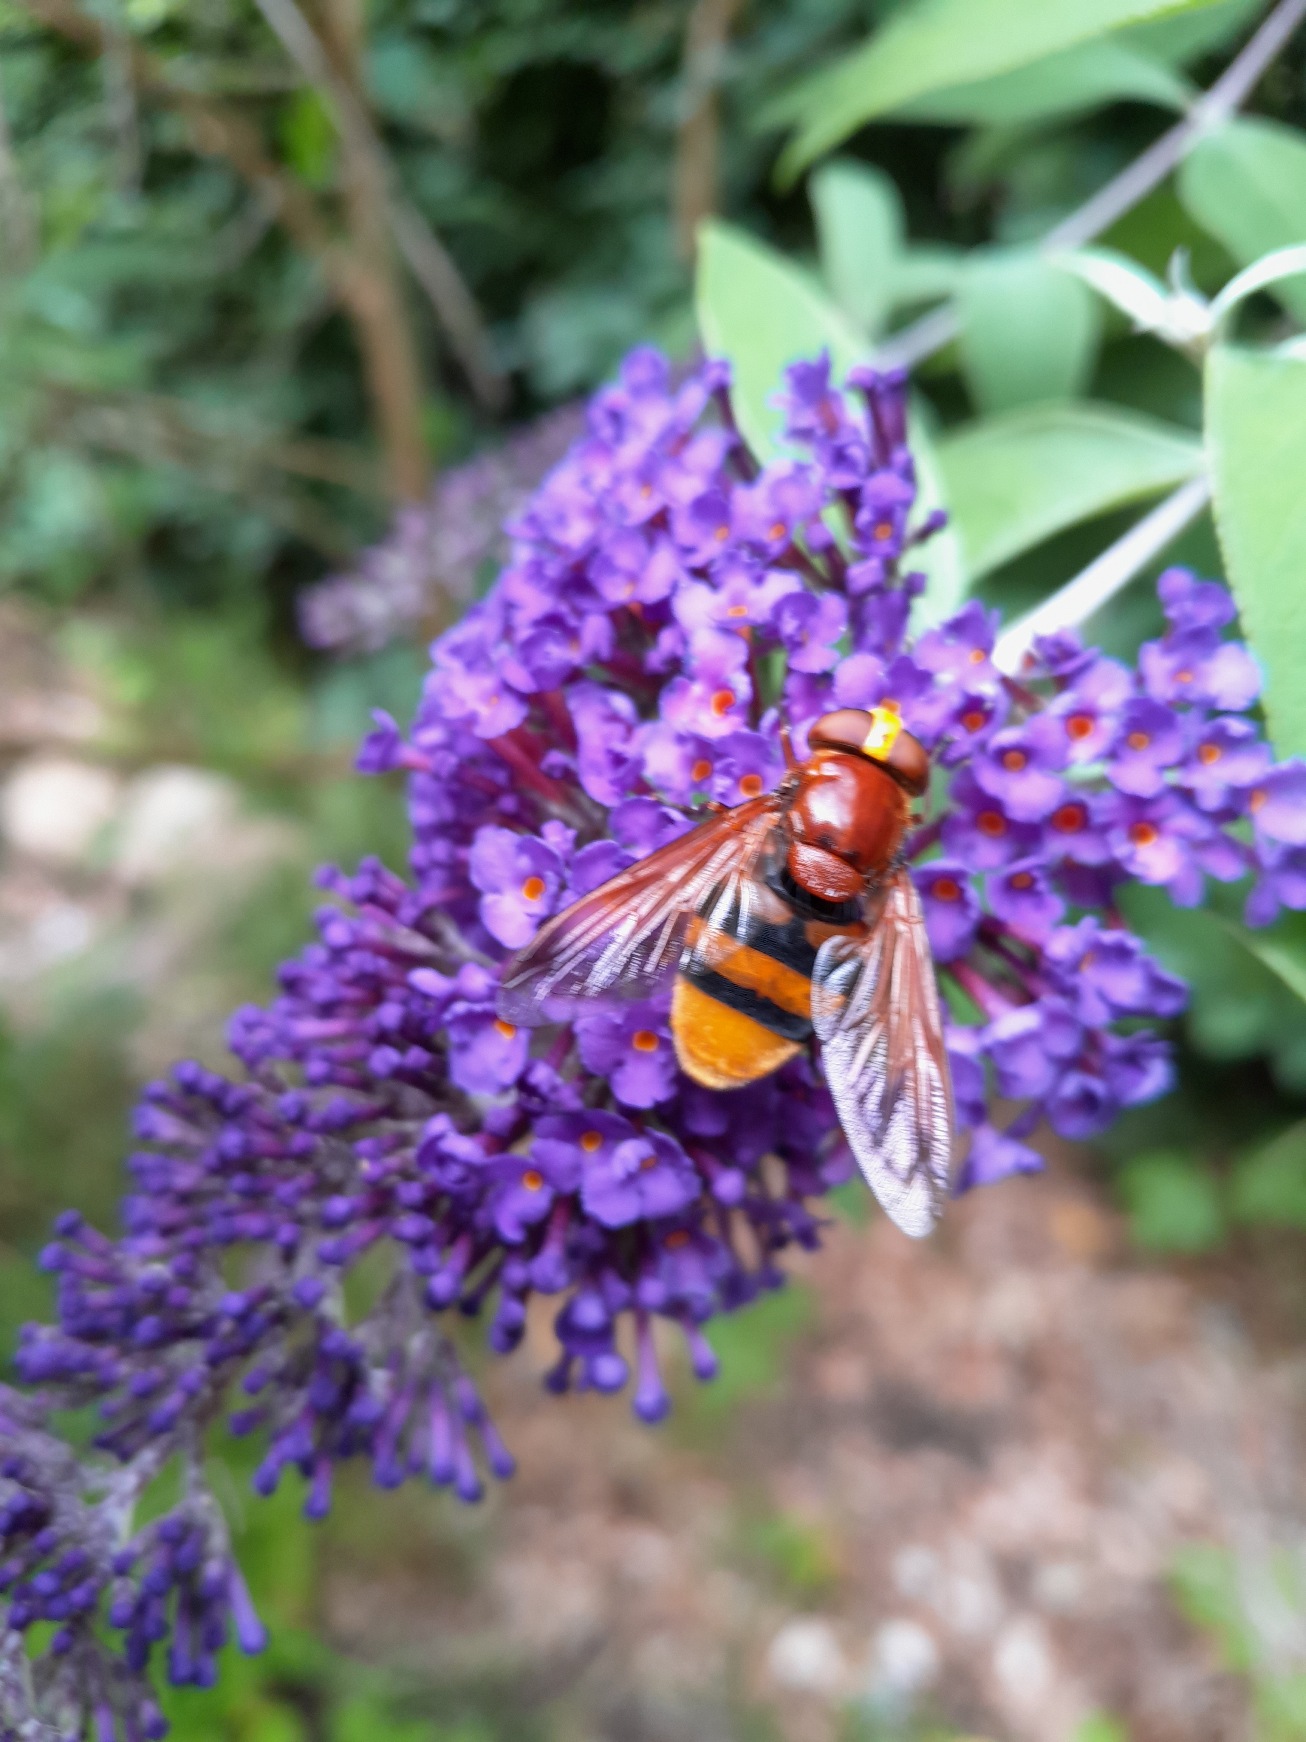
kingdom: Animalia
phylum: Arthropoda
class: Insecta
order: Diptera
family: Syrphidae
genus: Volucella
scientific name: Volucella zonaria
